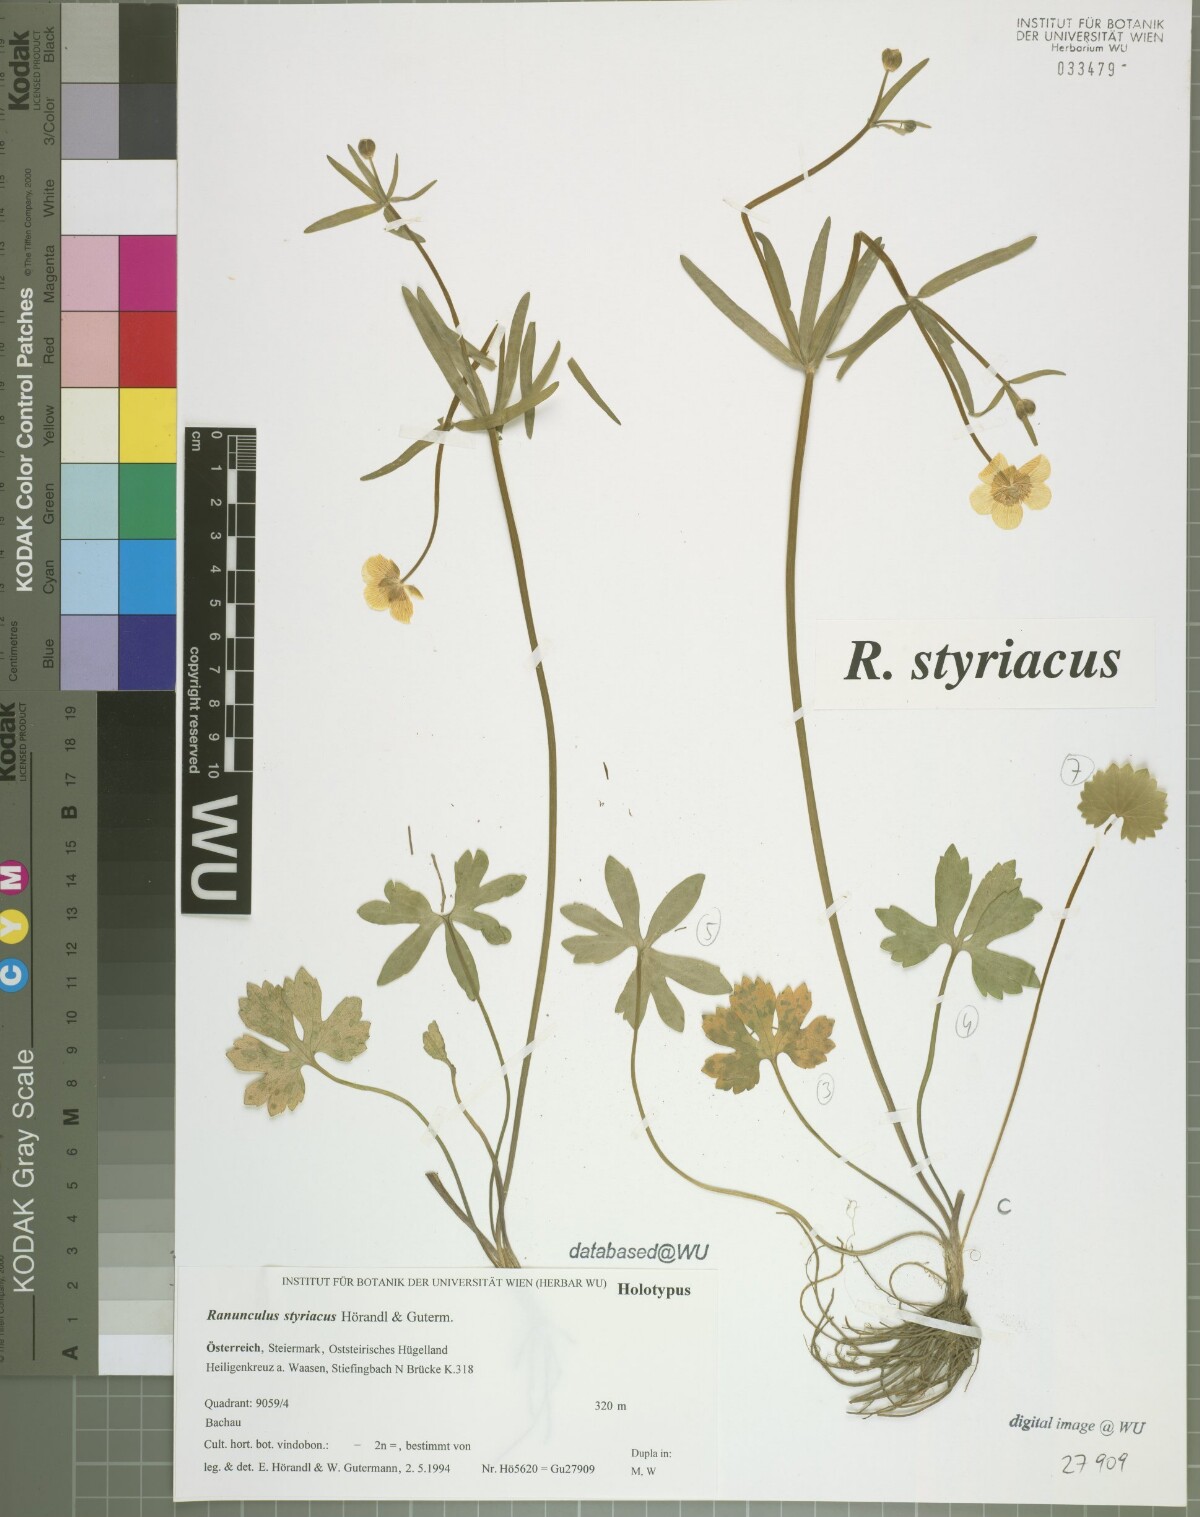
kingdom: Plantae
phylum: Tracheophyta
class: Magnoliopsida
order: Ranunculales
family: Ranunculaceae
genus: Ranunculus
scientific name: Ranunculus styriacus
